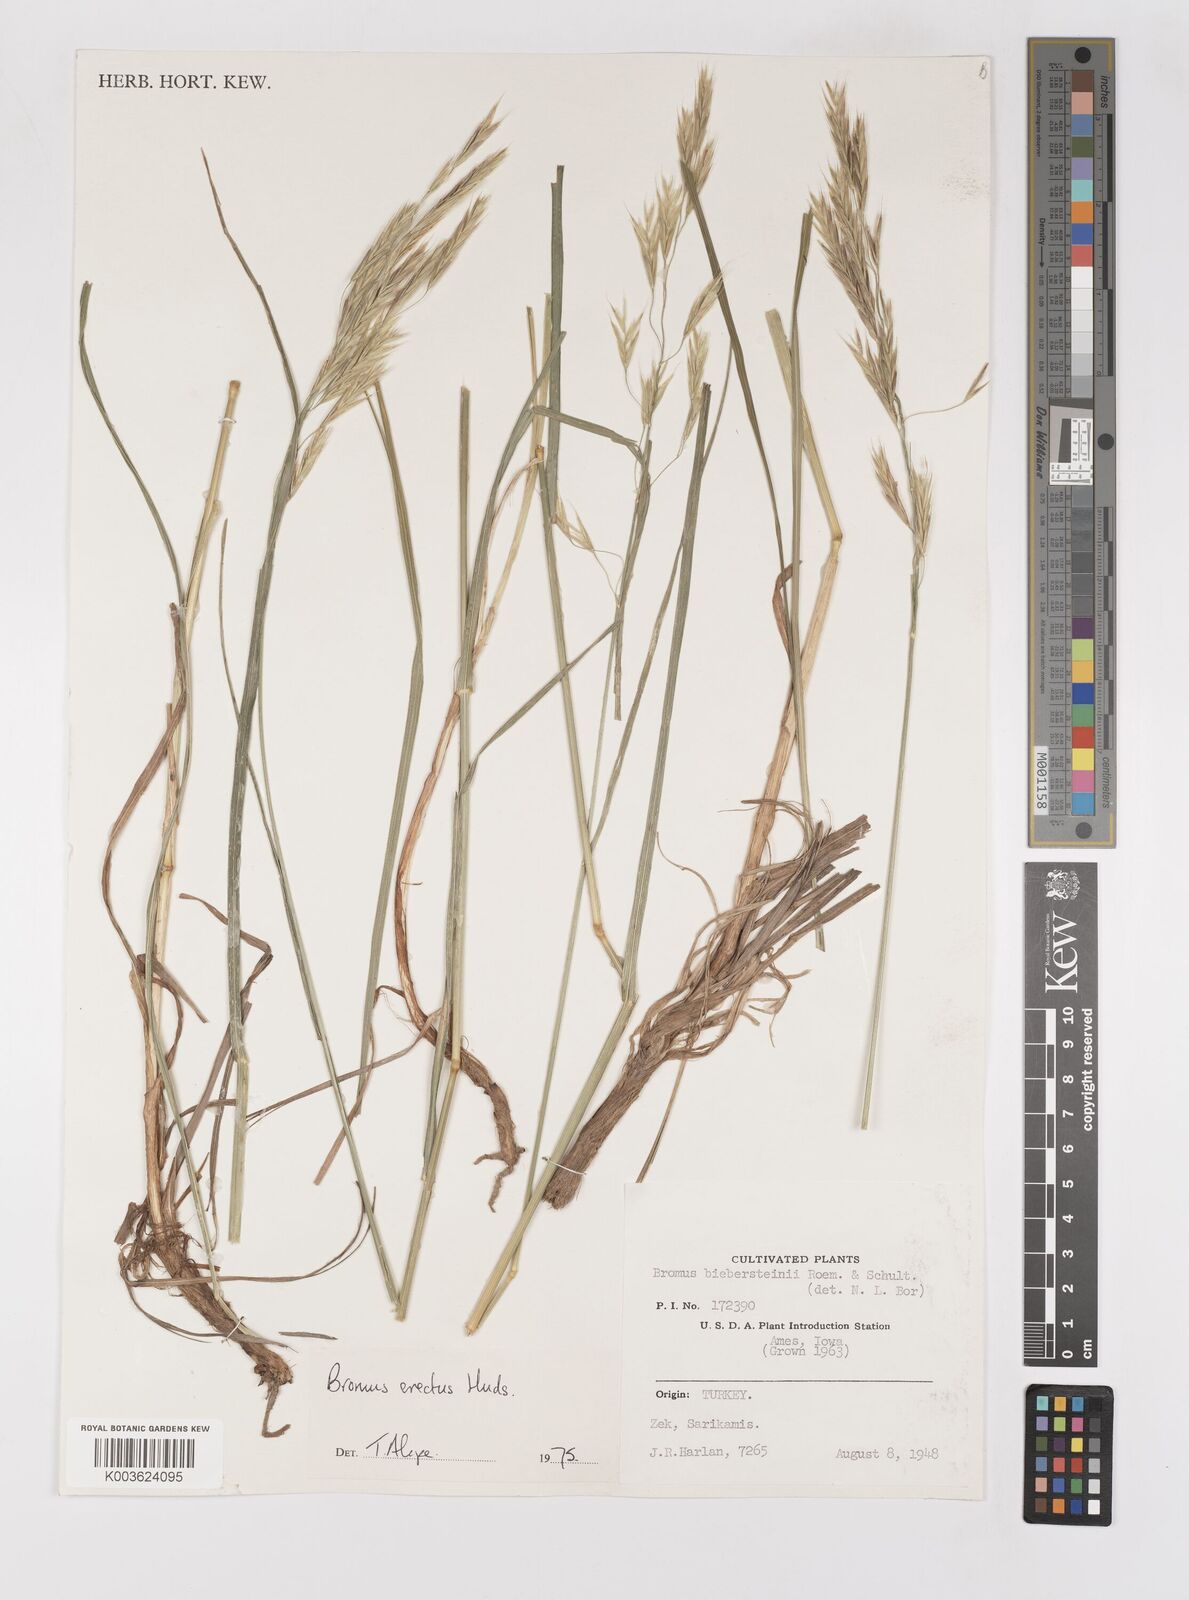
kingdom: Plantae
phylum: Tracheophyta
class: Liliopsida
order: Poales
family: Poaceae
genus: Bromus
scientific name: Bromus erectus
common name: Erect brome
